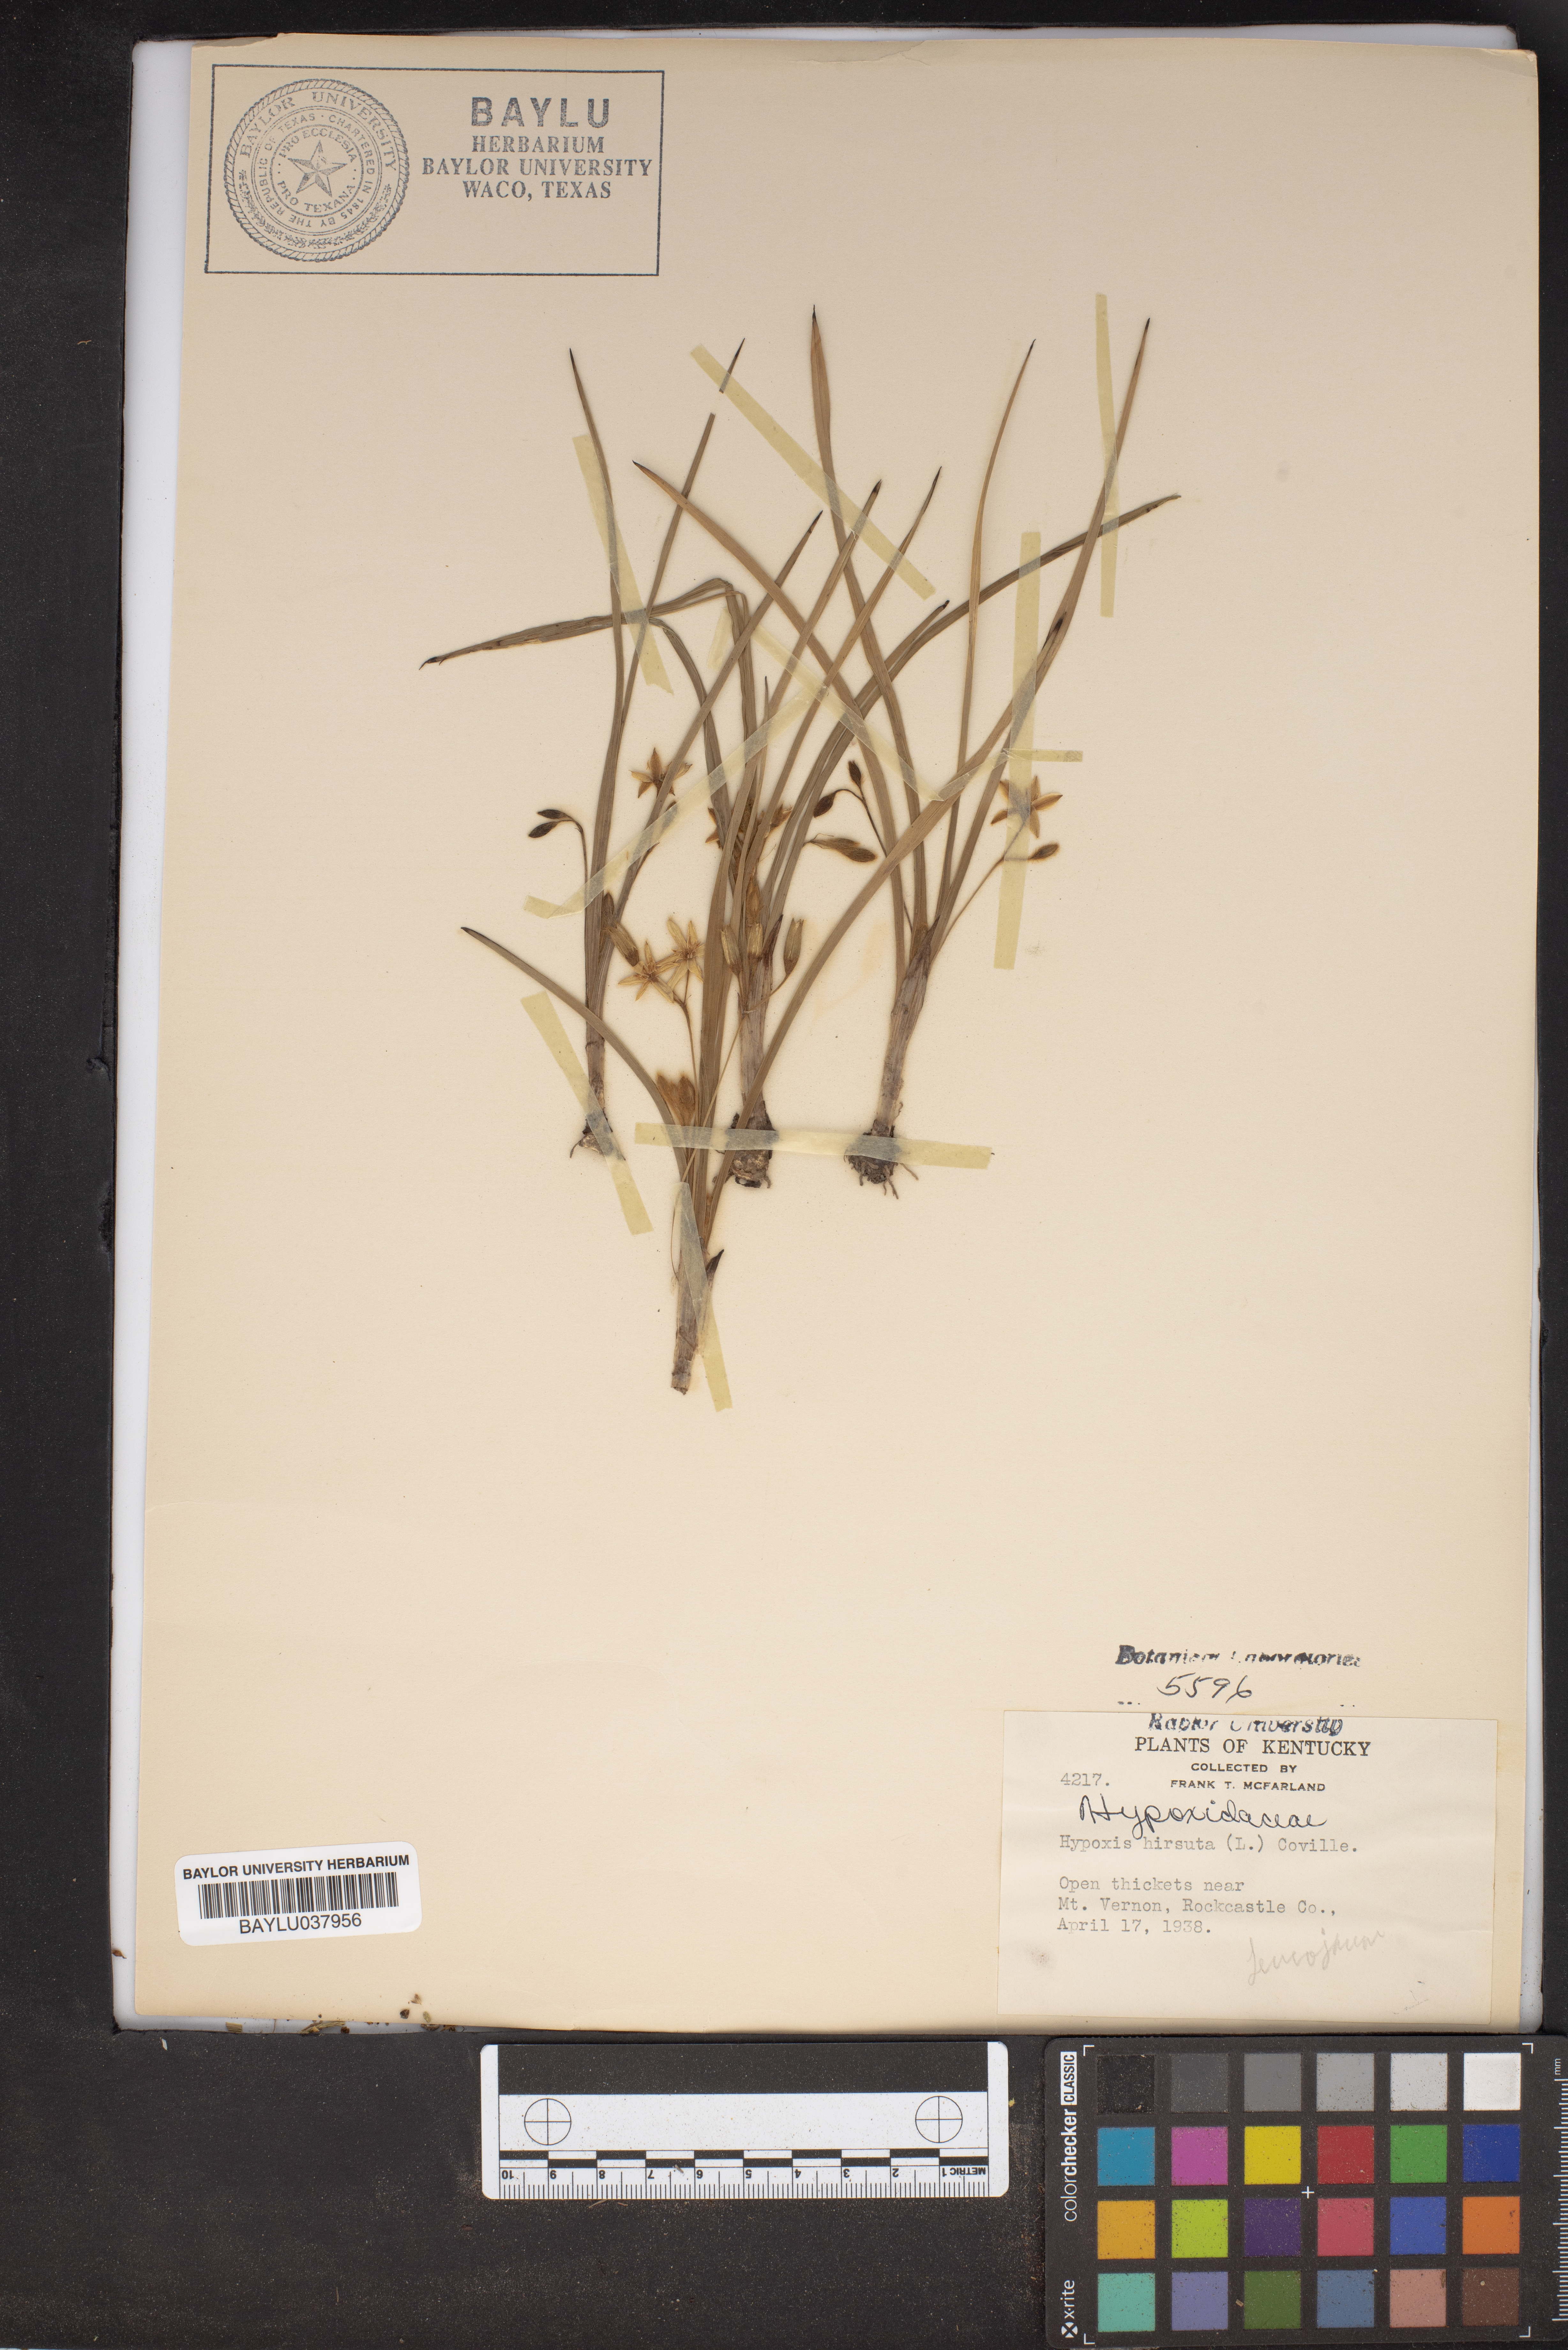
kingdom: Plantae
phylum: Tracheophyta
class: Liliopsida
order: Asparagales
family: Hypoxidaceae
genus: Hypoxis
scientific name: Hypoxis hirsuta
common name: Common goldstar
